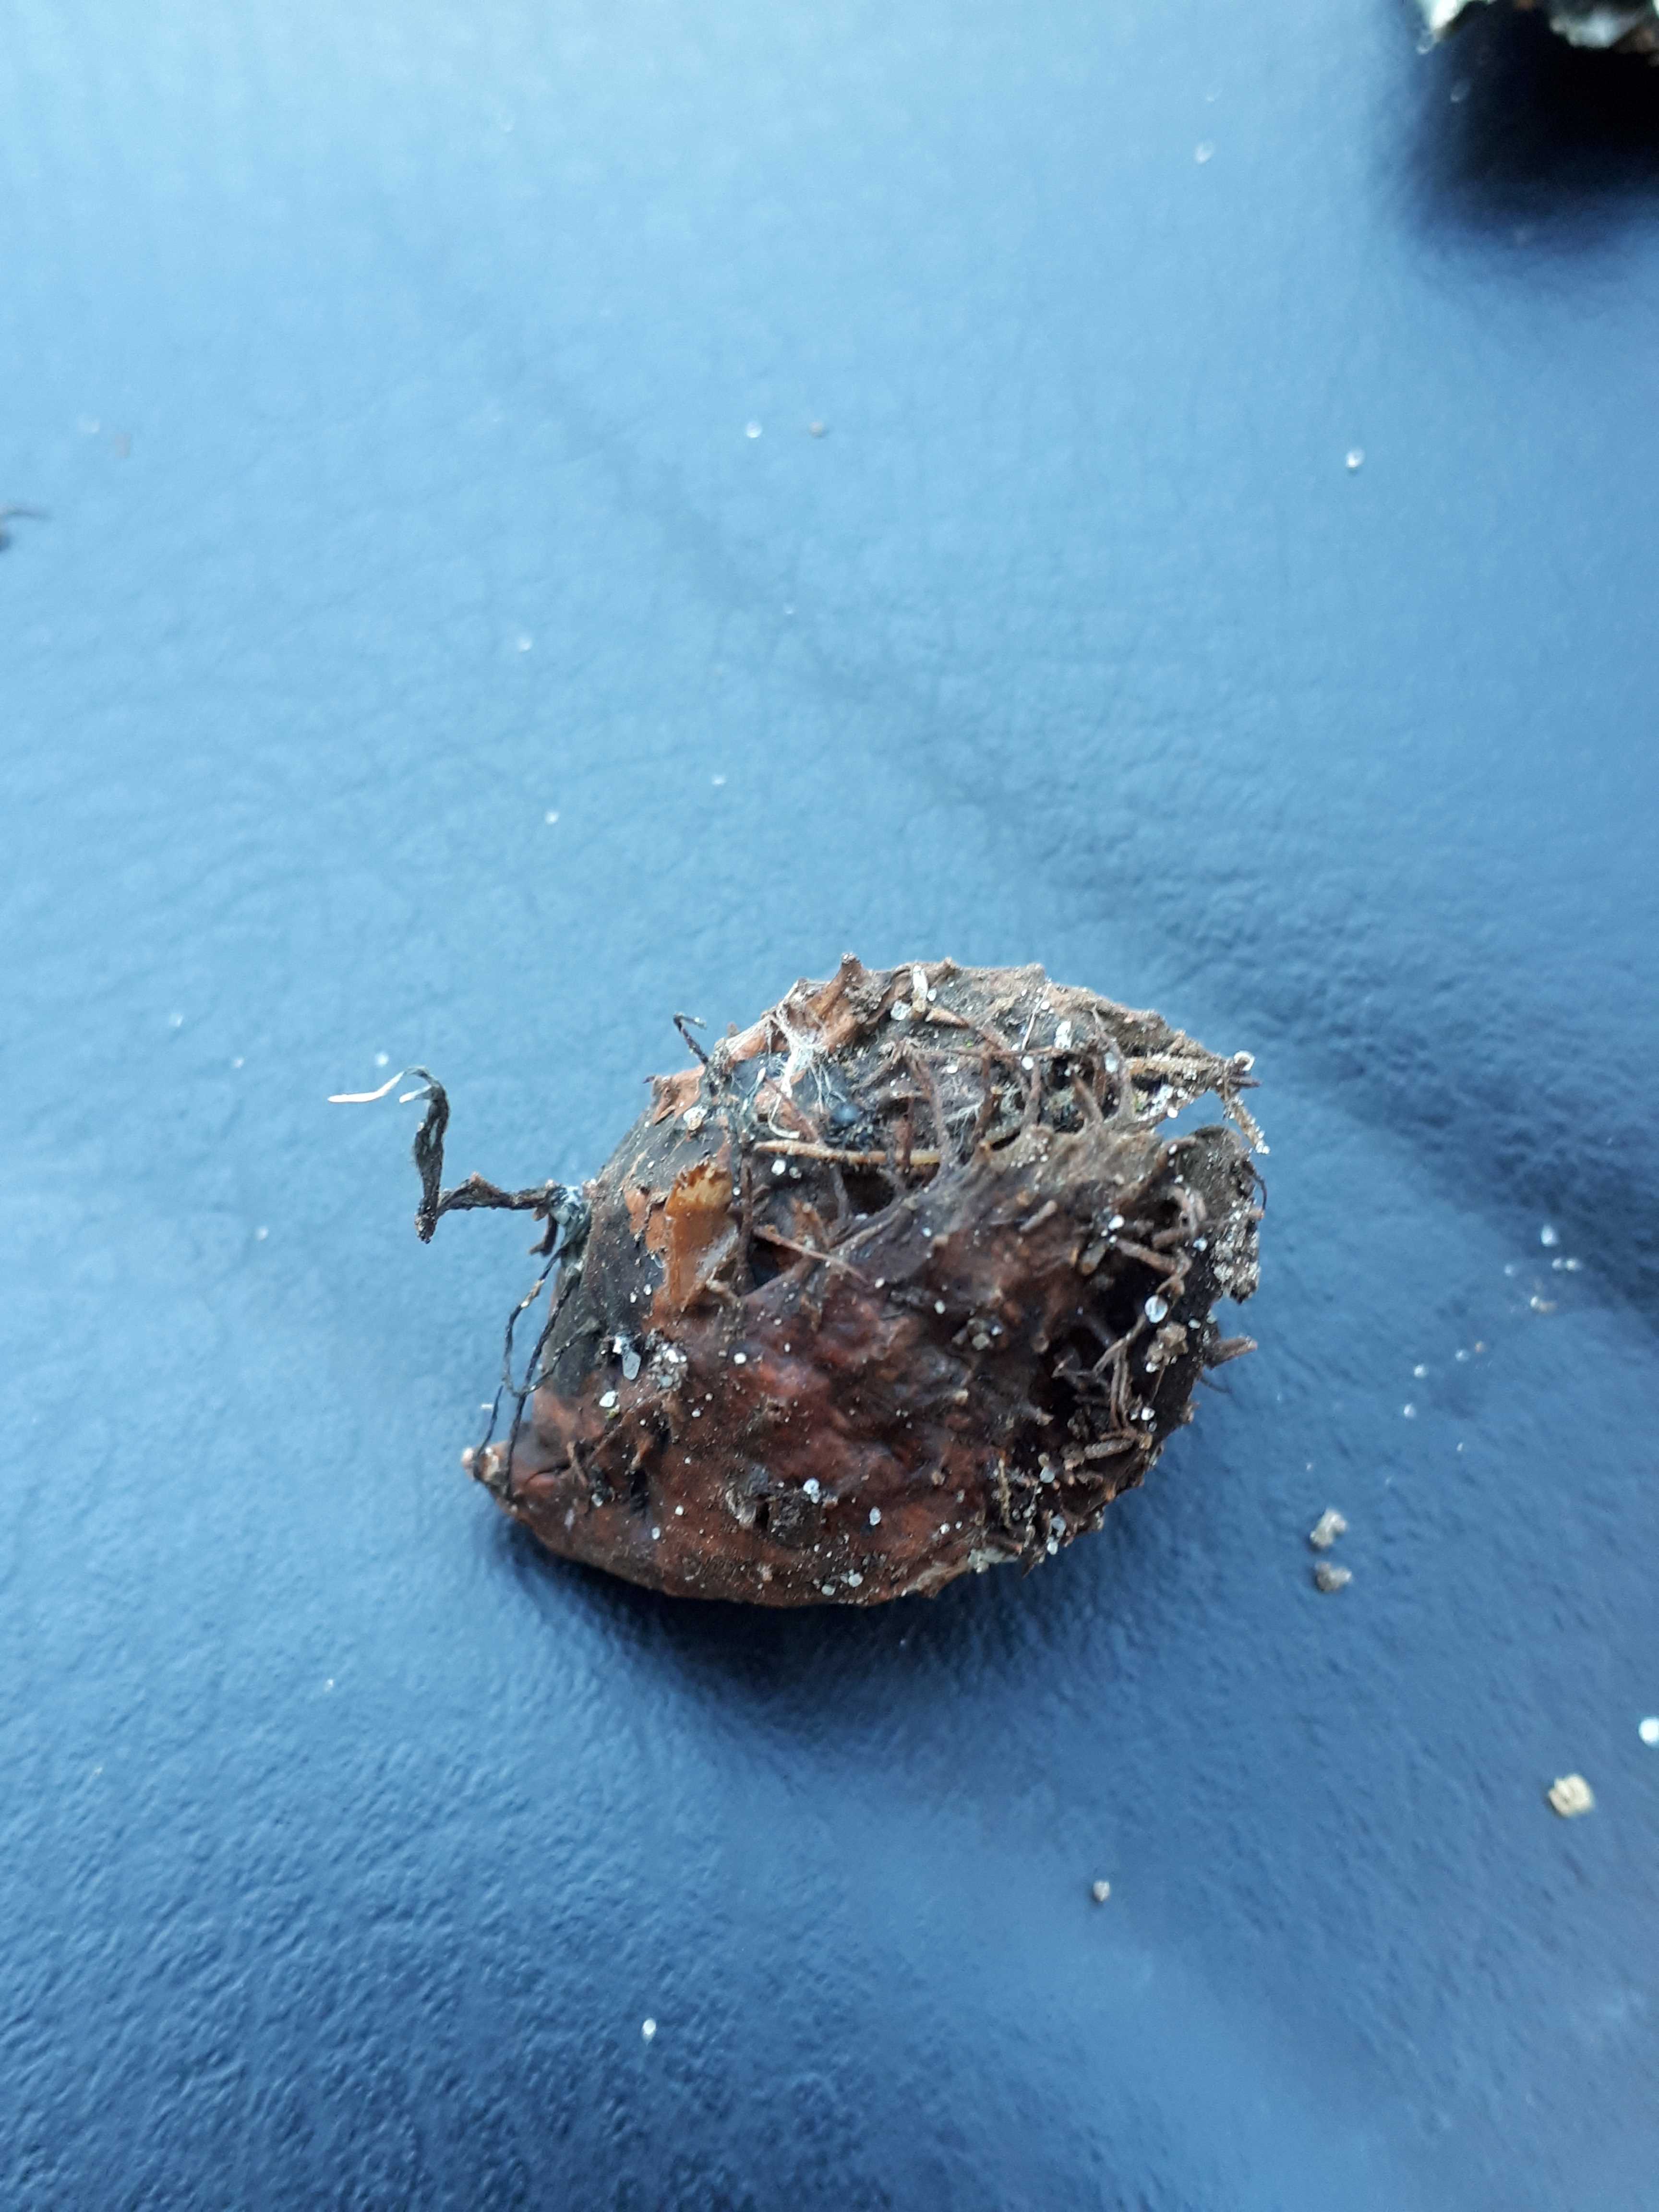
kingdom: Fungi
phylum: Ascomycota
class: Sordariomycetes
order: Xylariales
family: Xylariaceae
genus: Xylaria
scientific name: Xylaria carpophila
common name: bogskål-stødsvamp
